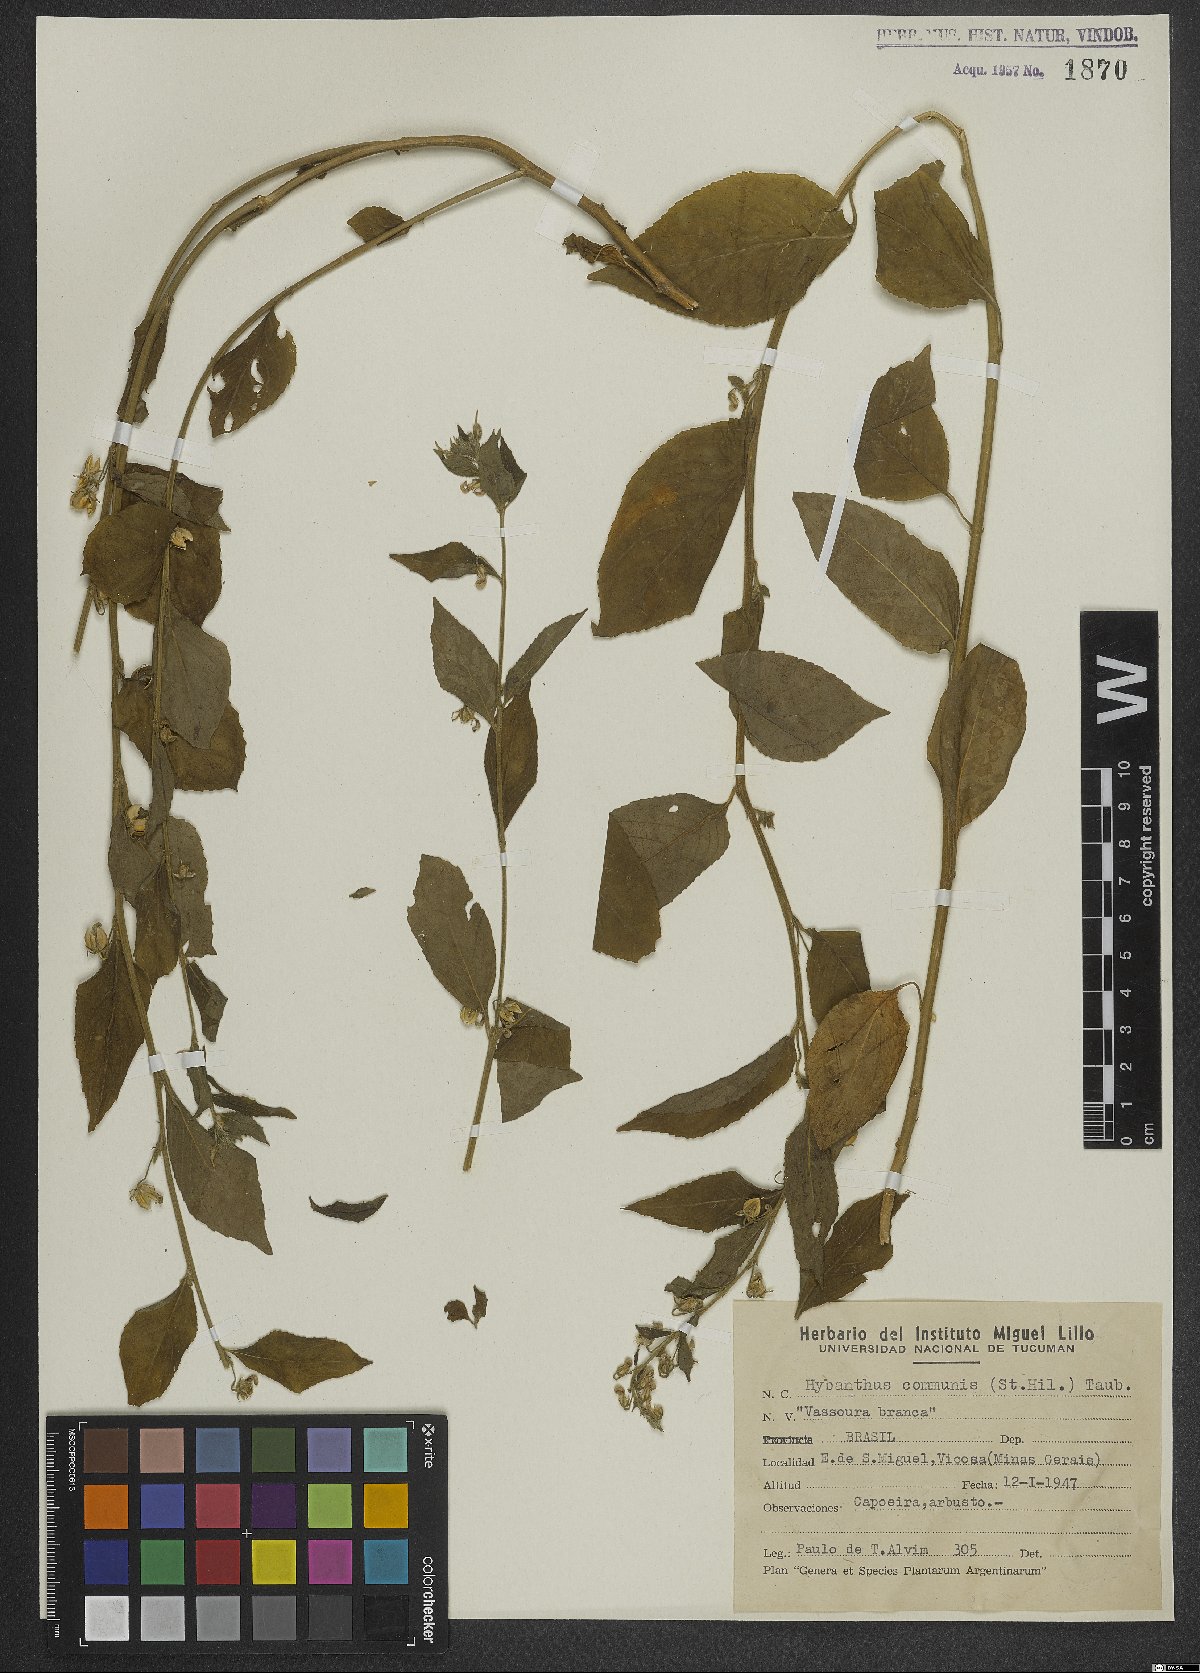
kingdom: Plantae
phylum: Tracheophyta
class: Magnoliopsida
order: Malpighiales
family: Violaceae
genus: Pombalia
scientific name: Pombalia communis
